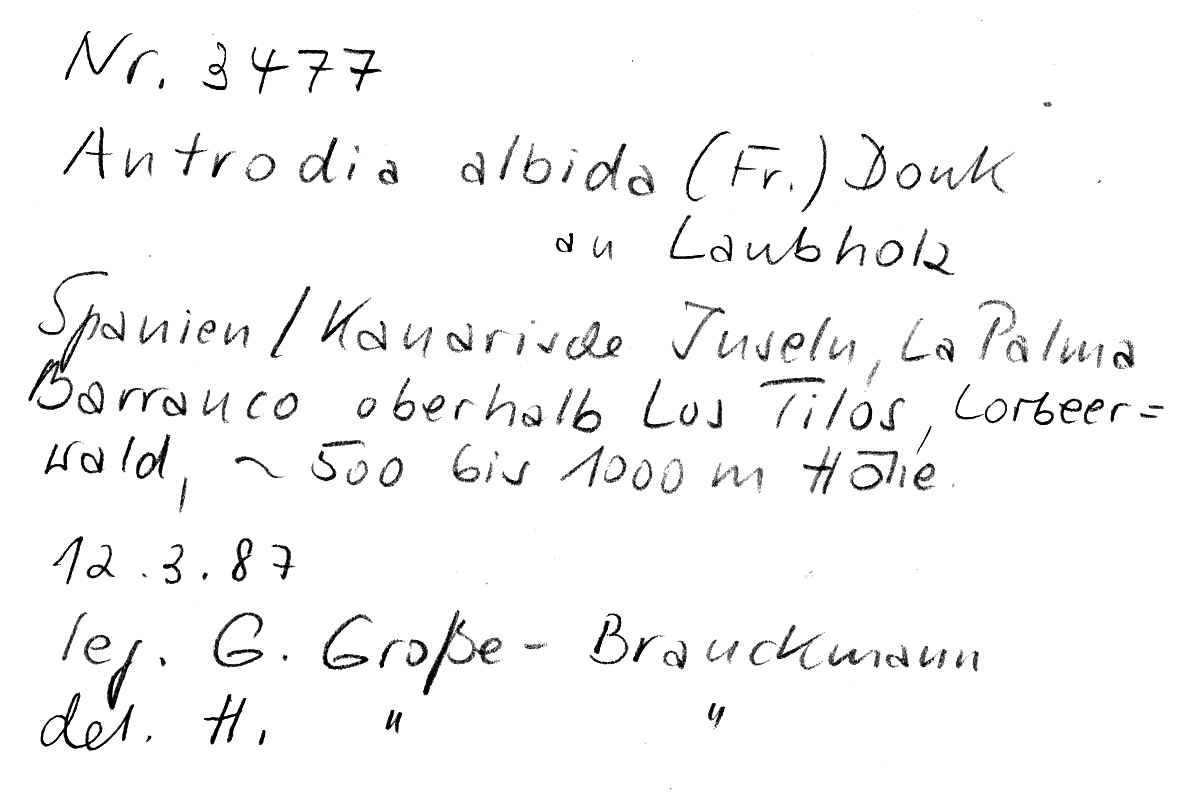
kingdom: Fungi
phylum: Basidiomycota
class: Agaricomycetes
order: Polyporales
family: Fomitopsidaceae
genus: Antrodia
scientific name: Antrodia albida
